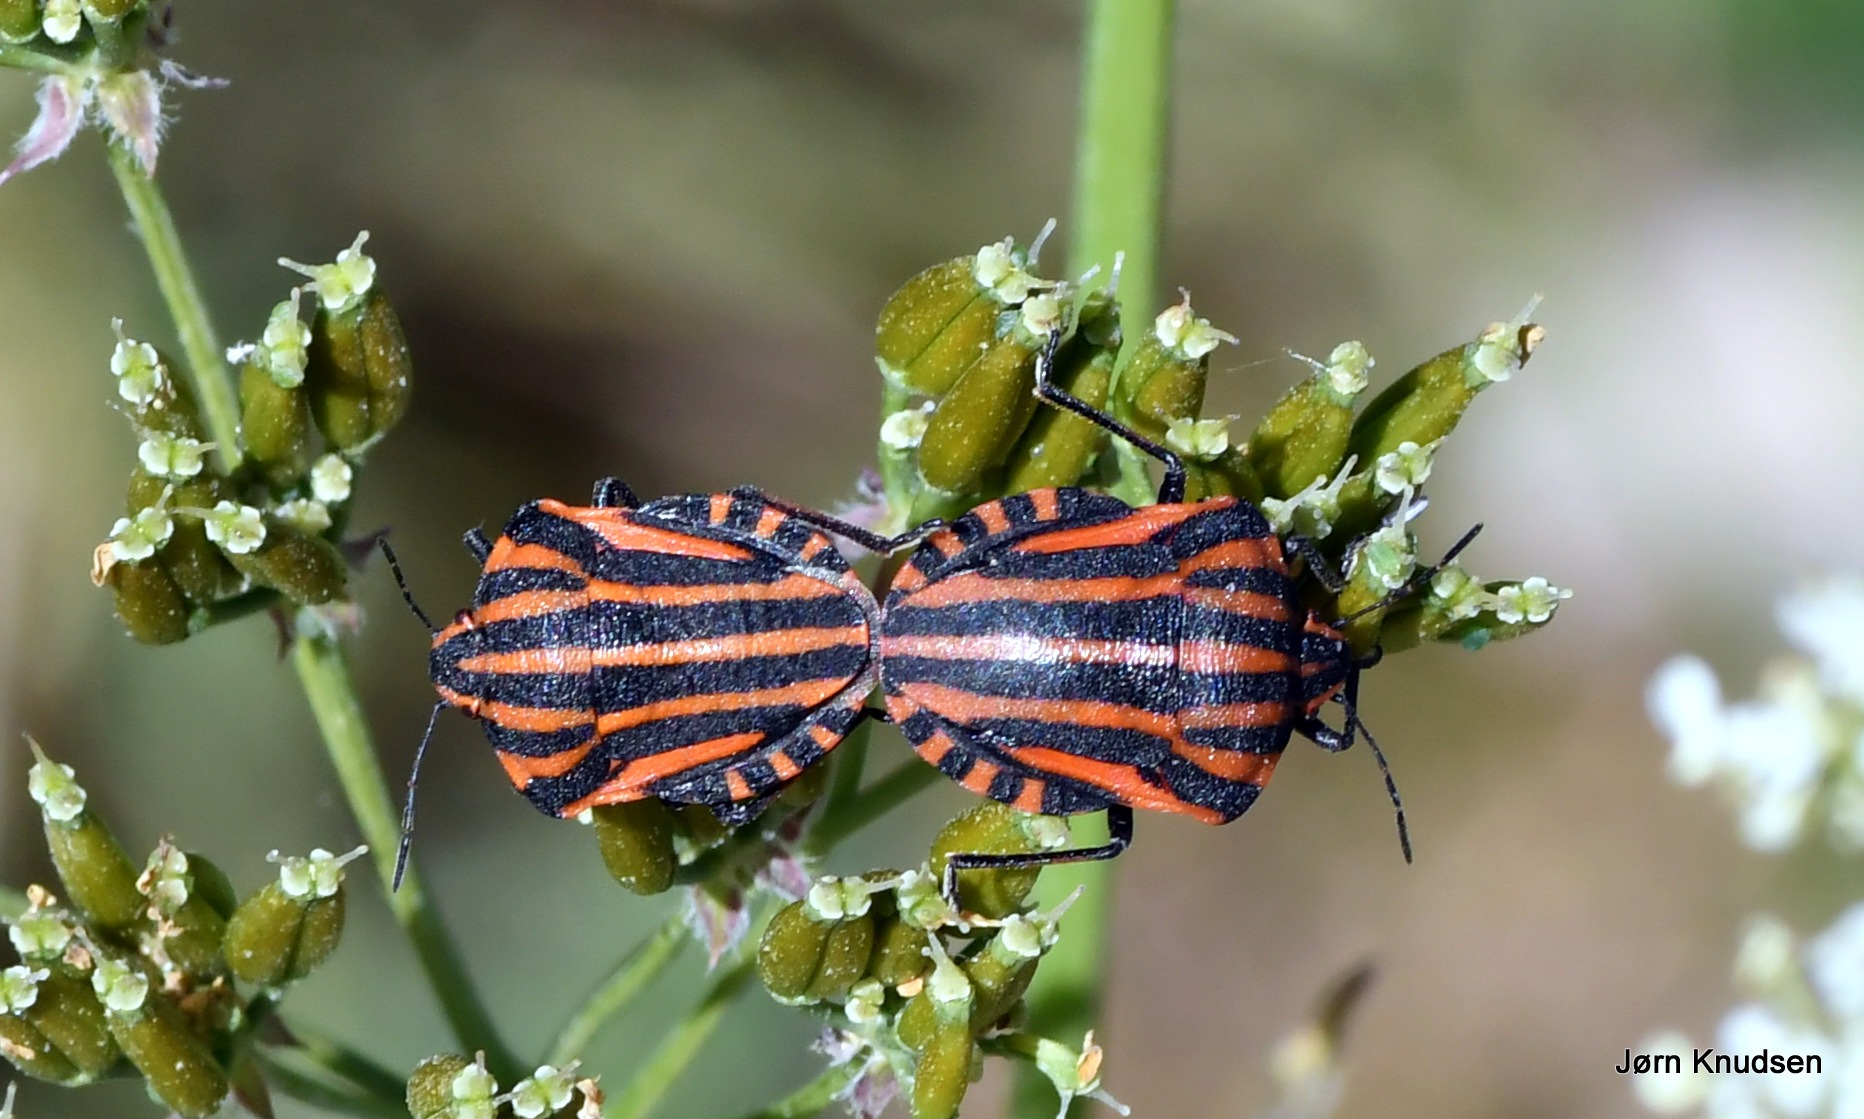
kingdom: Animalia
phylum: Arthropoda
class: Insecta
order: Hemiptera
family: Pentatomidae
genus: Graphosoma
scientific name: Graphosoma italicum
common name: Stribetæge
